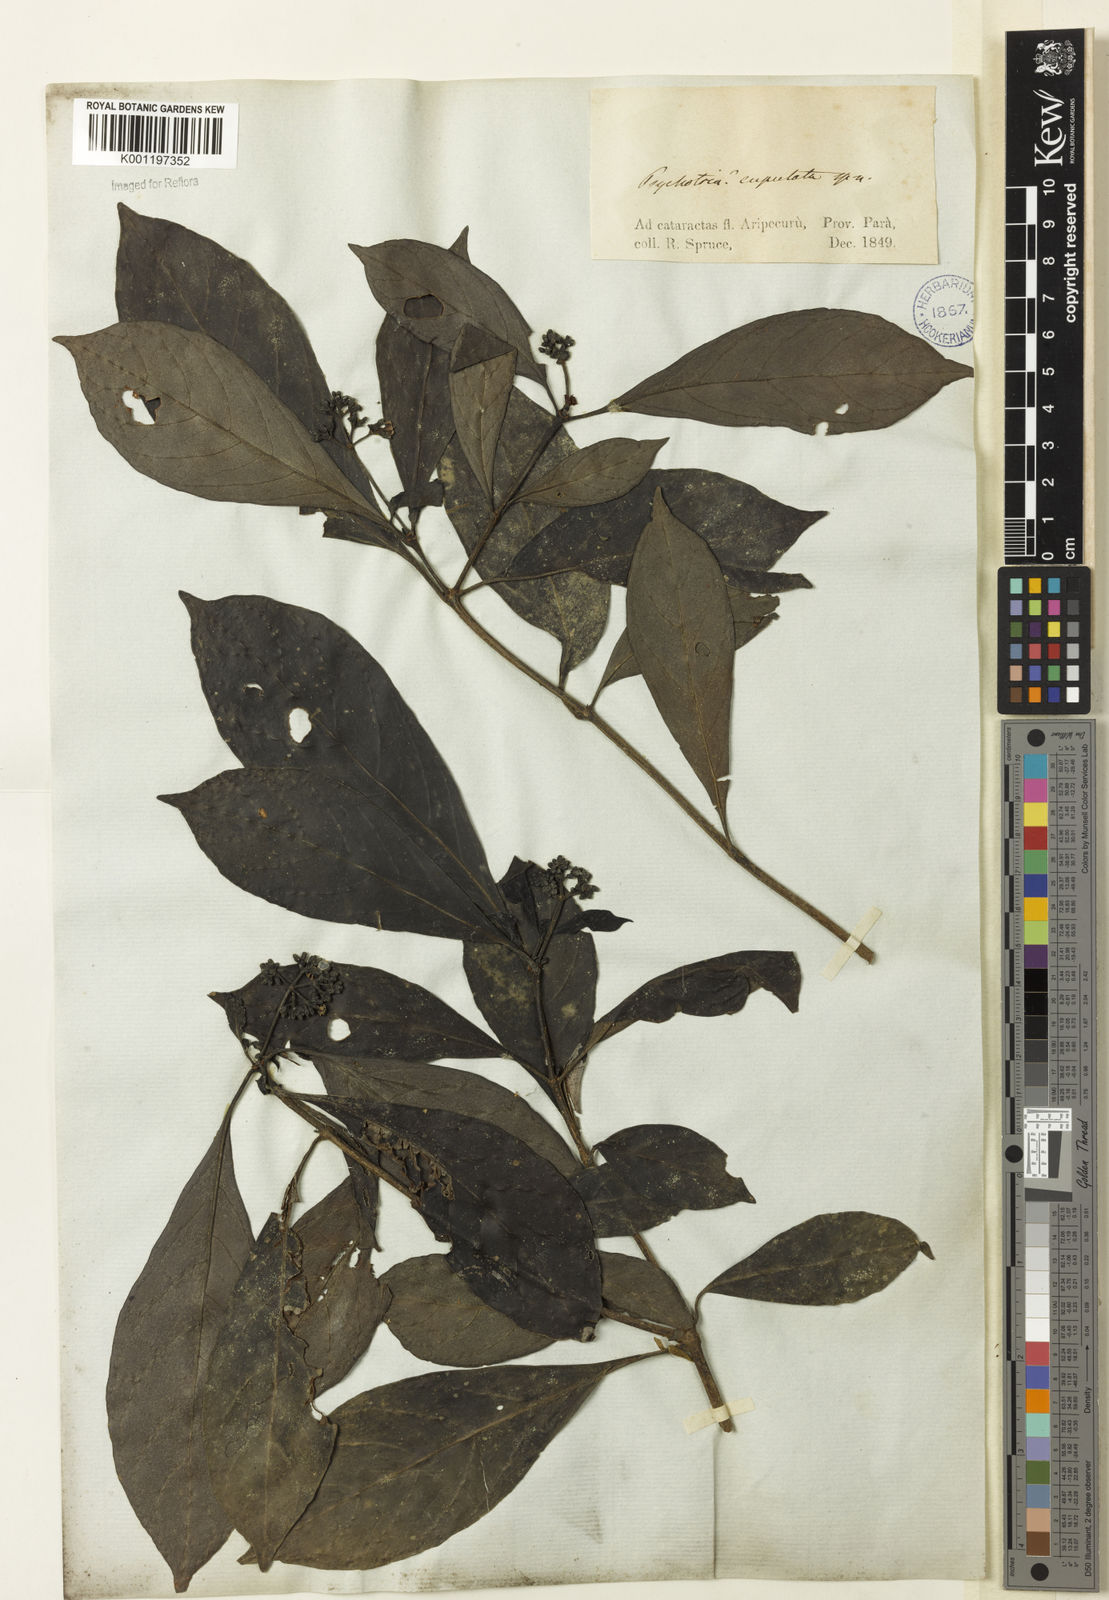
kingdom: Plantae
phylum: Tracheophyta
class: Magnoliopsida
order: Gentianales
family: Rubiaceae
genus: Psychotria
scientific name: Psychotria
